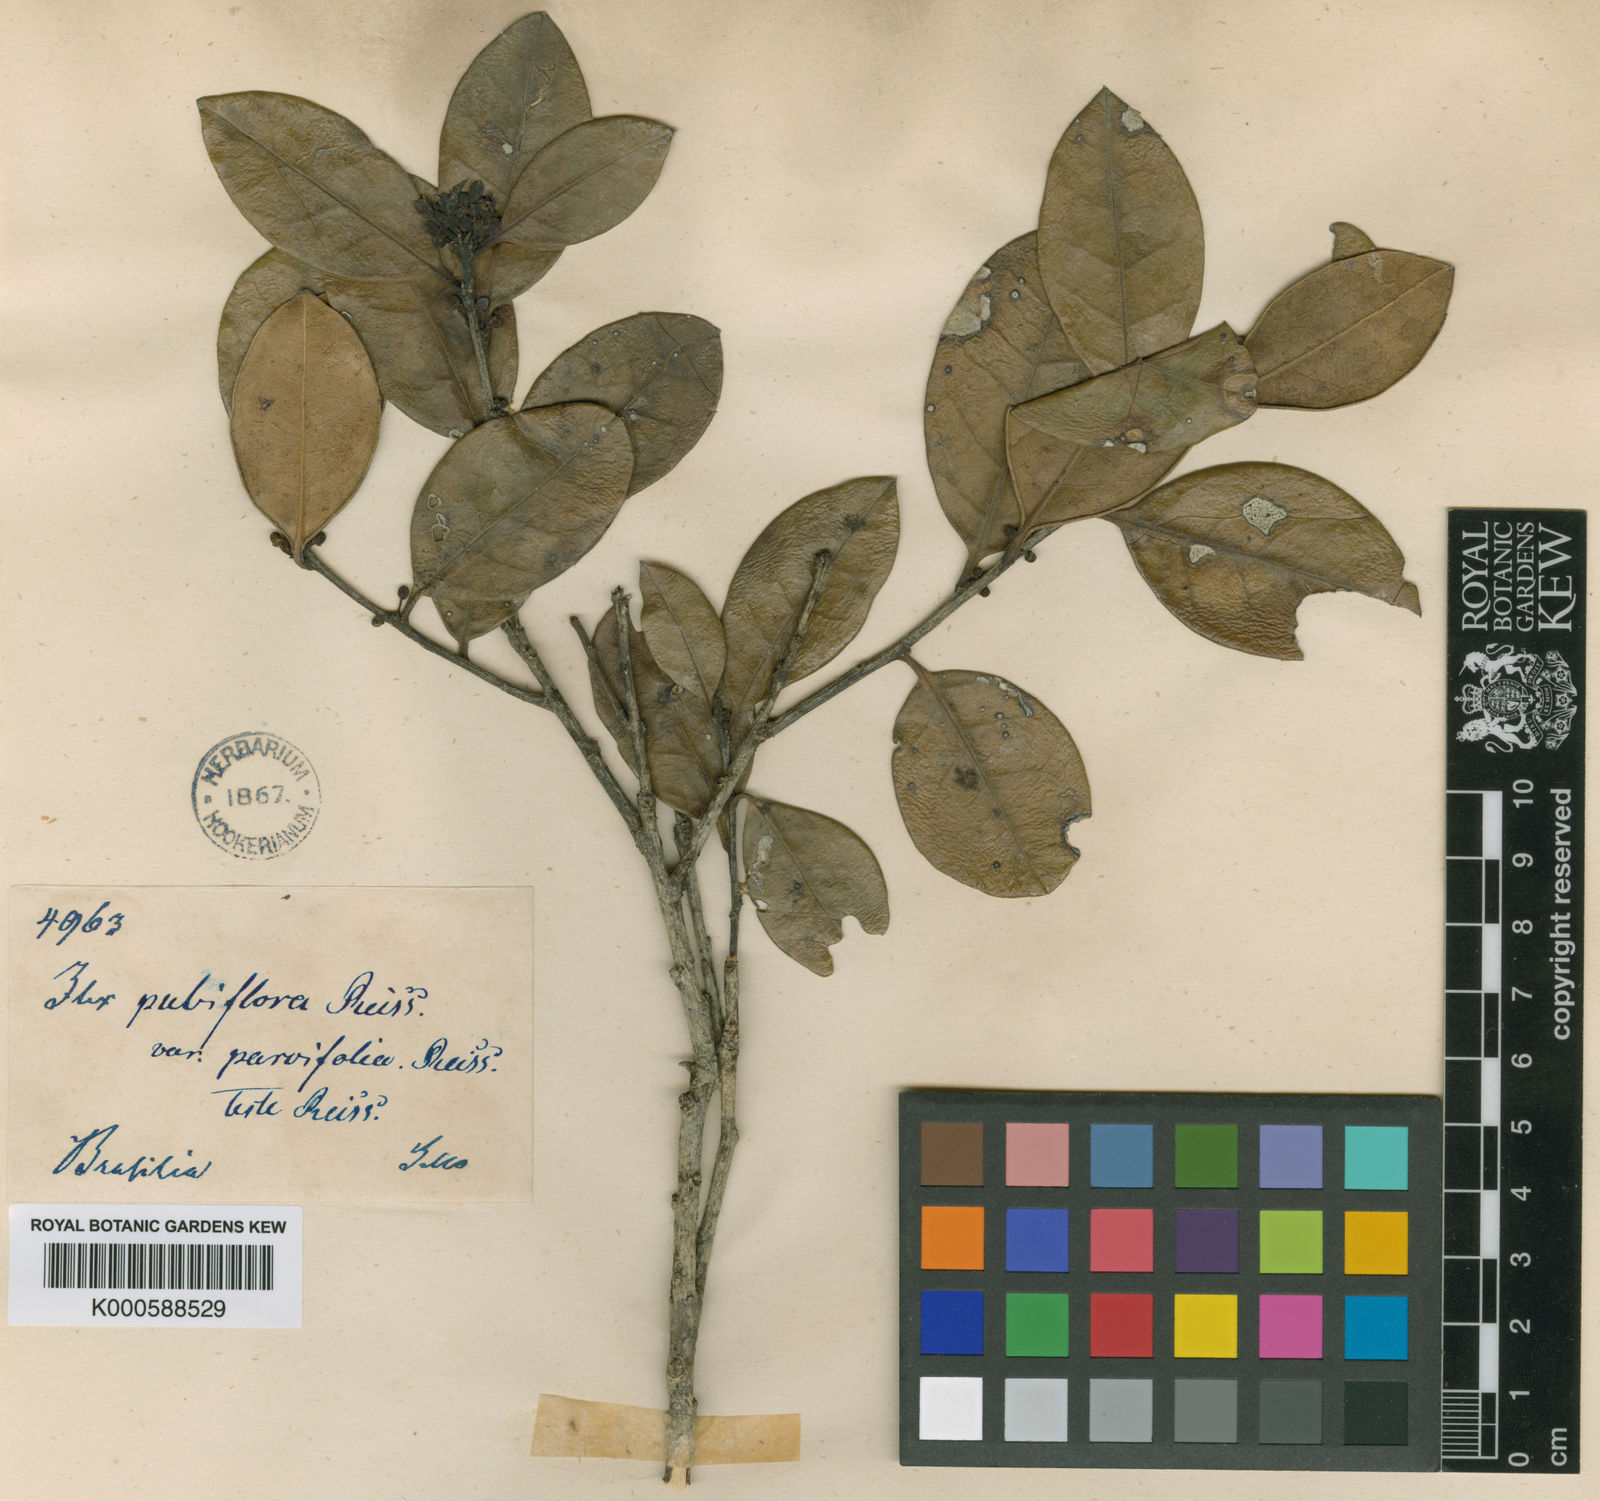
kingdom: Plantae
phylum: Tracheophyta
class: Magnoliopsida
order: Aquifoliales
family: Aquifoliaceae
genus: Ilex
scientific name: Ilex brasiliensis
